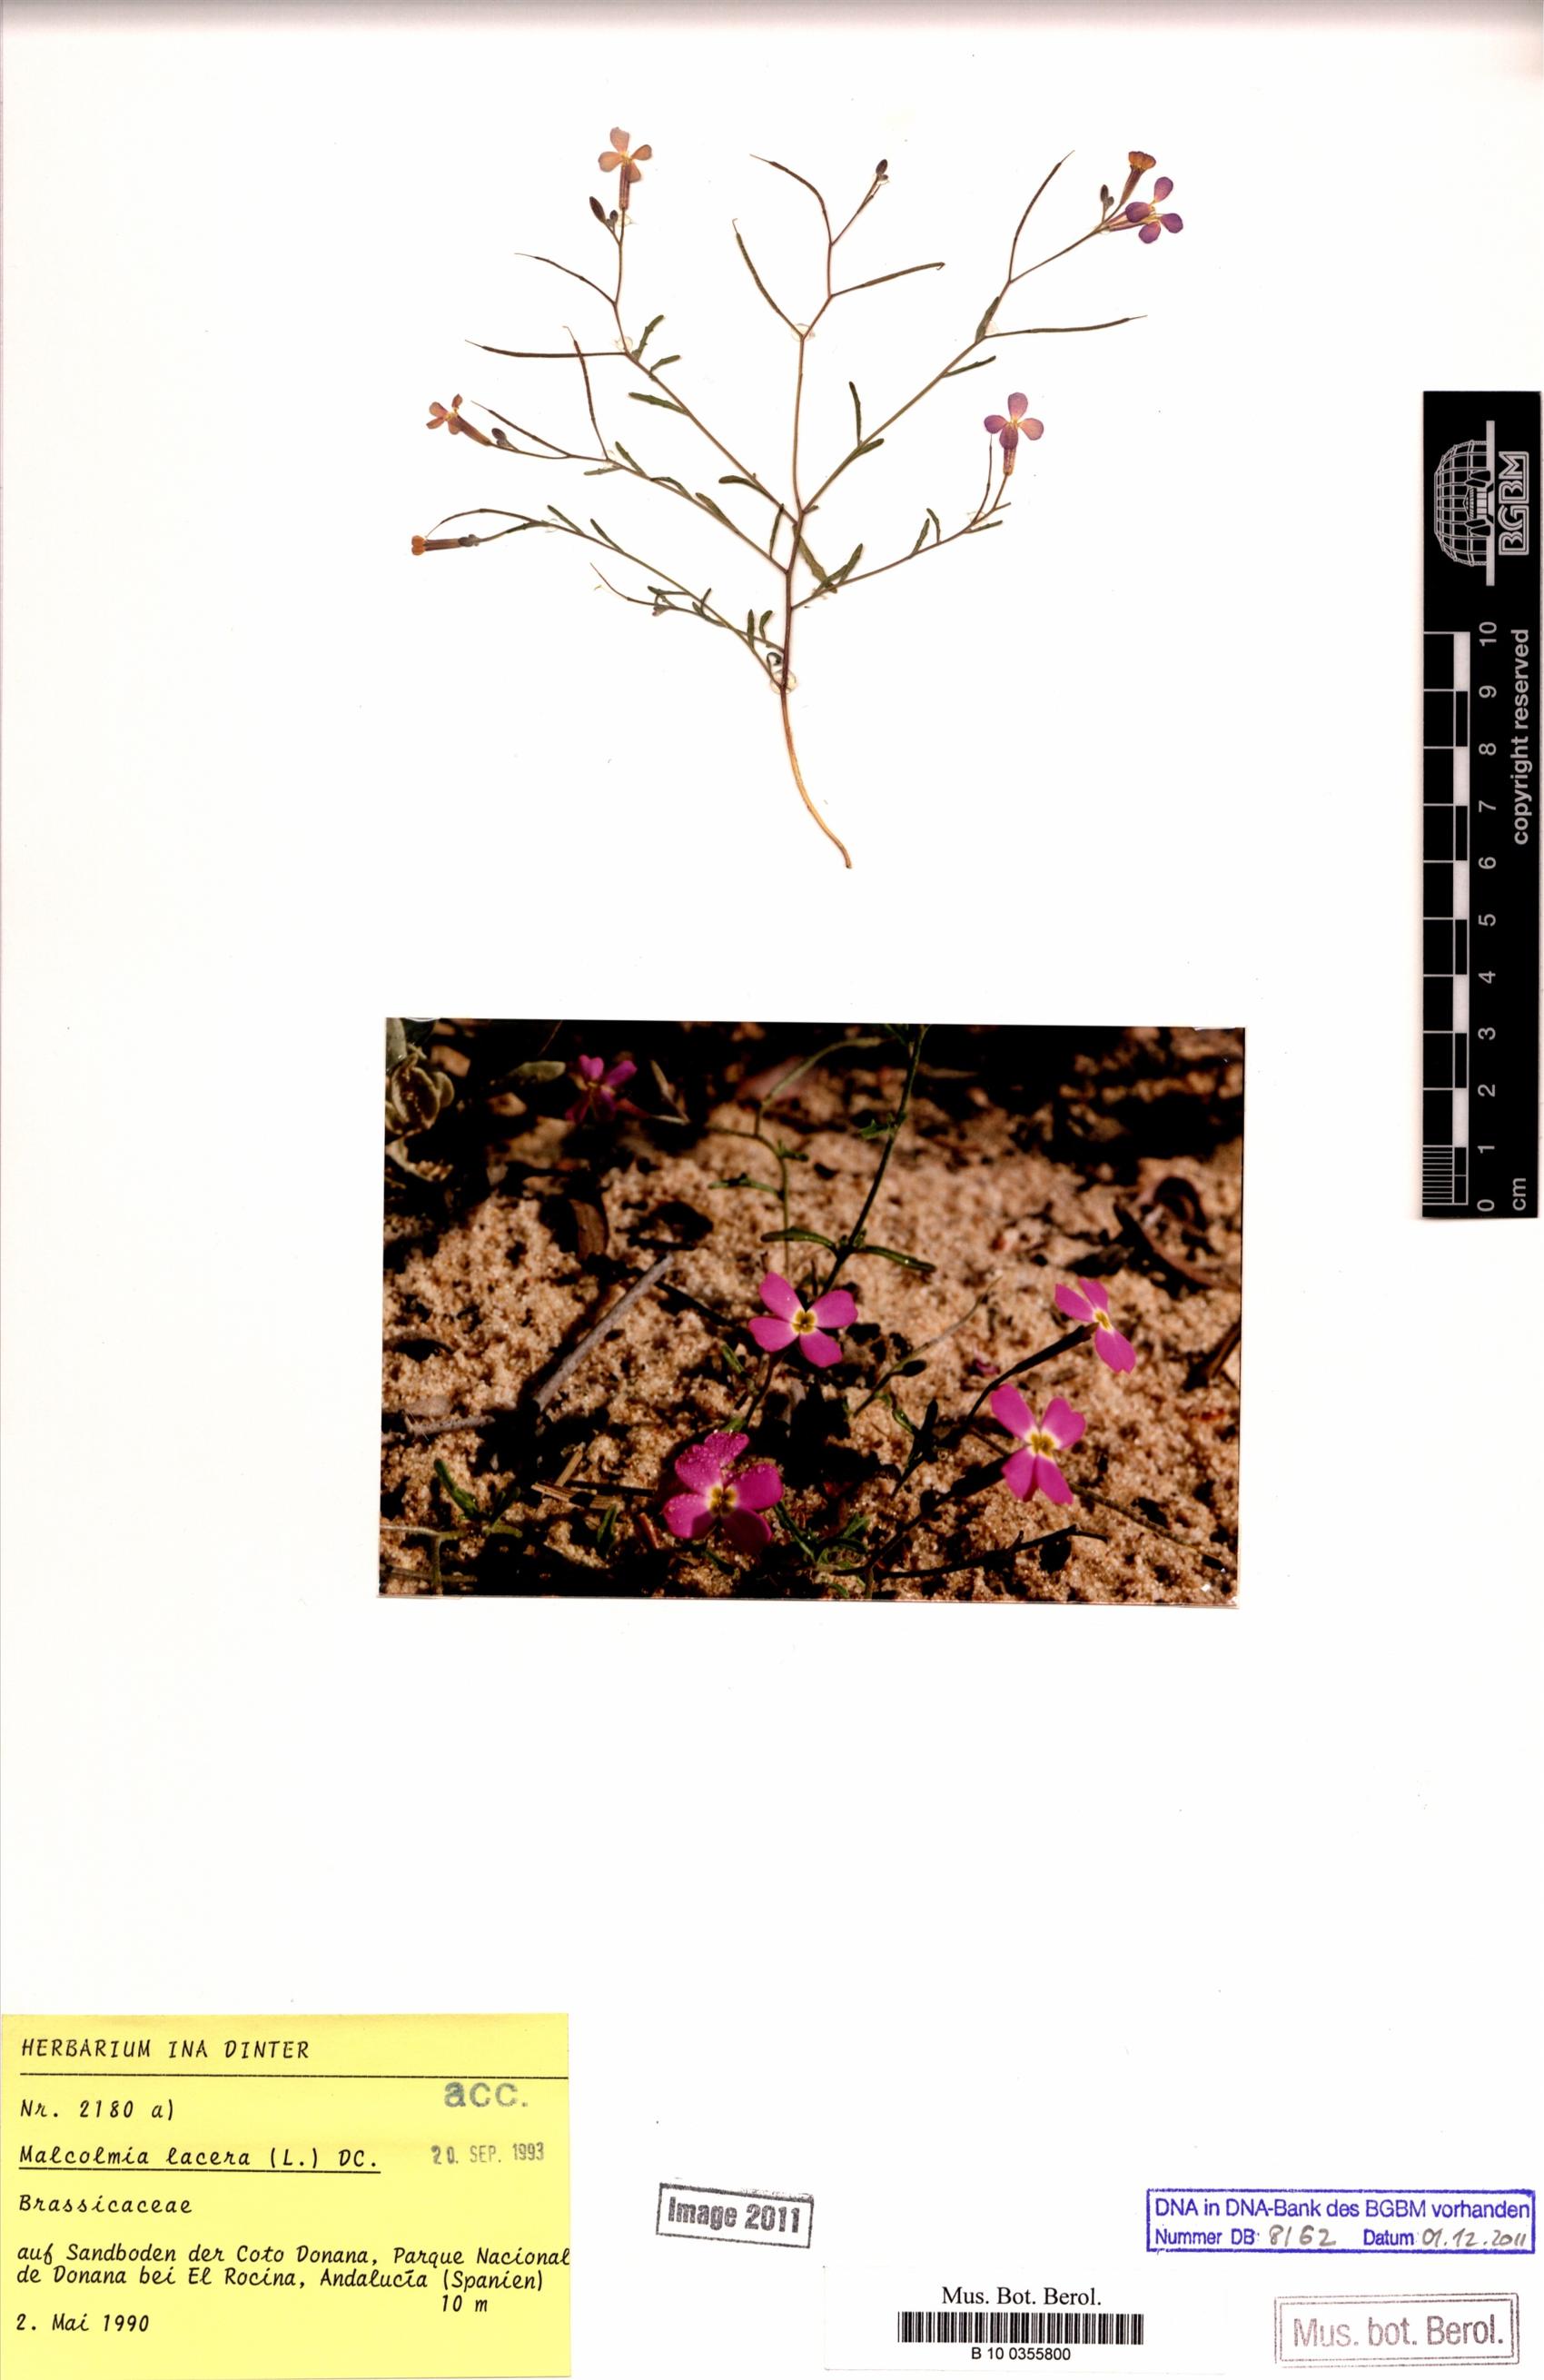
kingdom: Plantae
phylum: Tracheophyta
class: Magnoliopsida
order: Brassicales
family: Brassicaceae
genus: Raphanus
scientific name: Raphanus raphanistrum
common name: Wild radish
